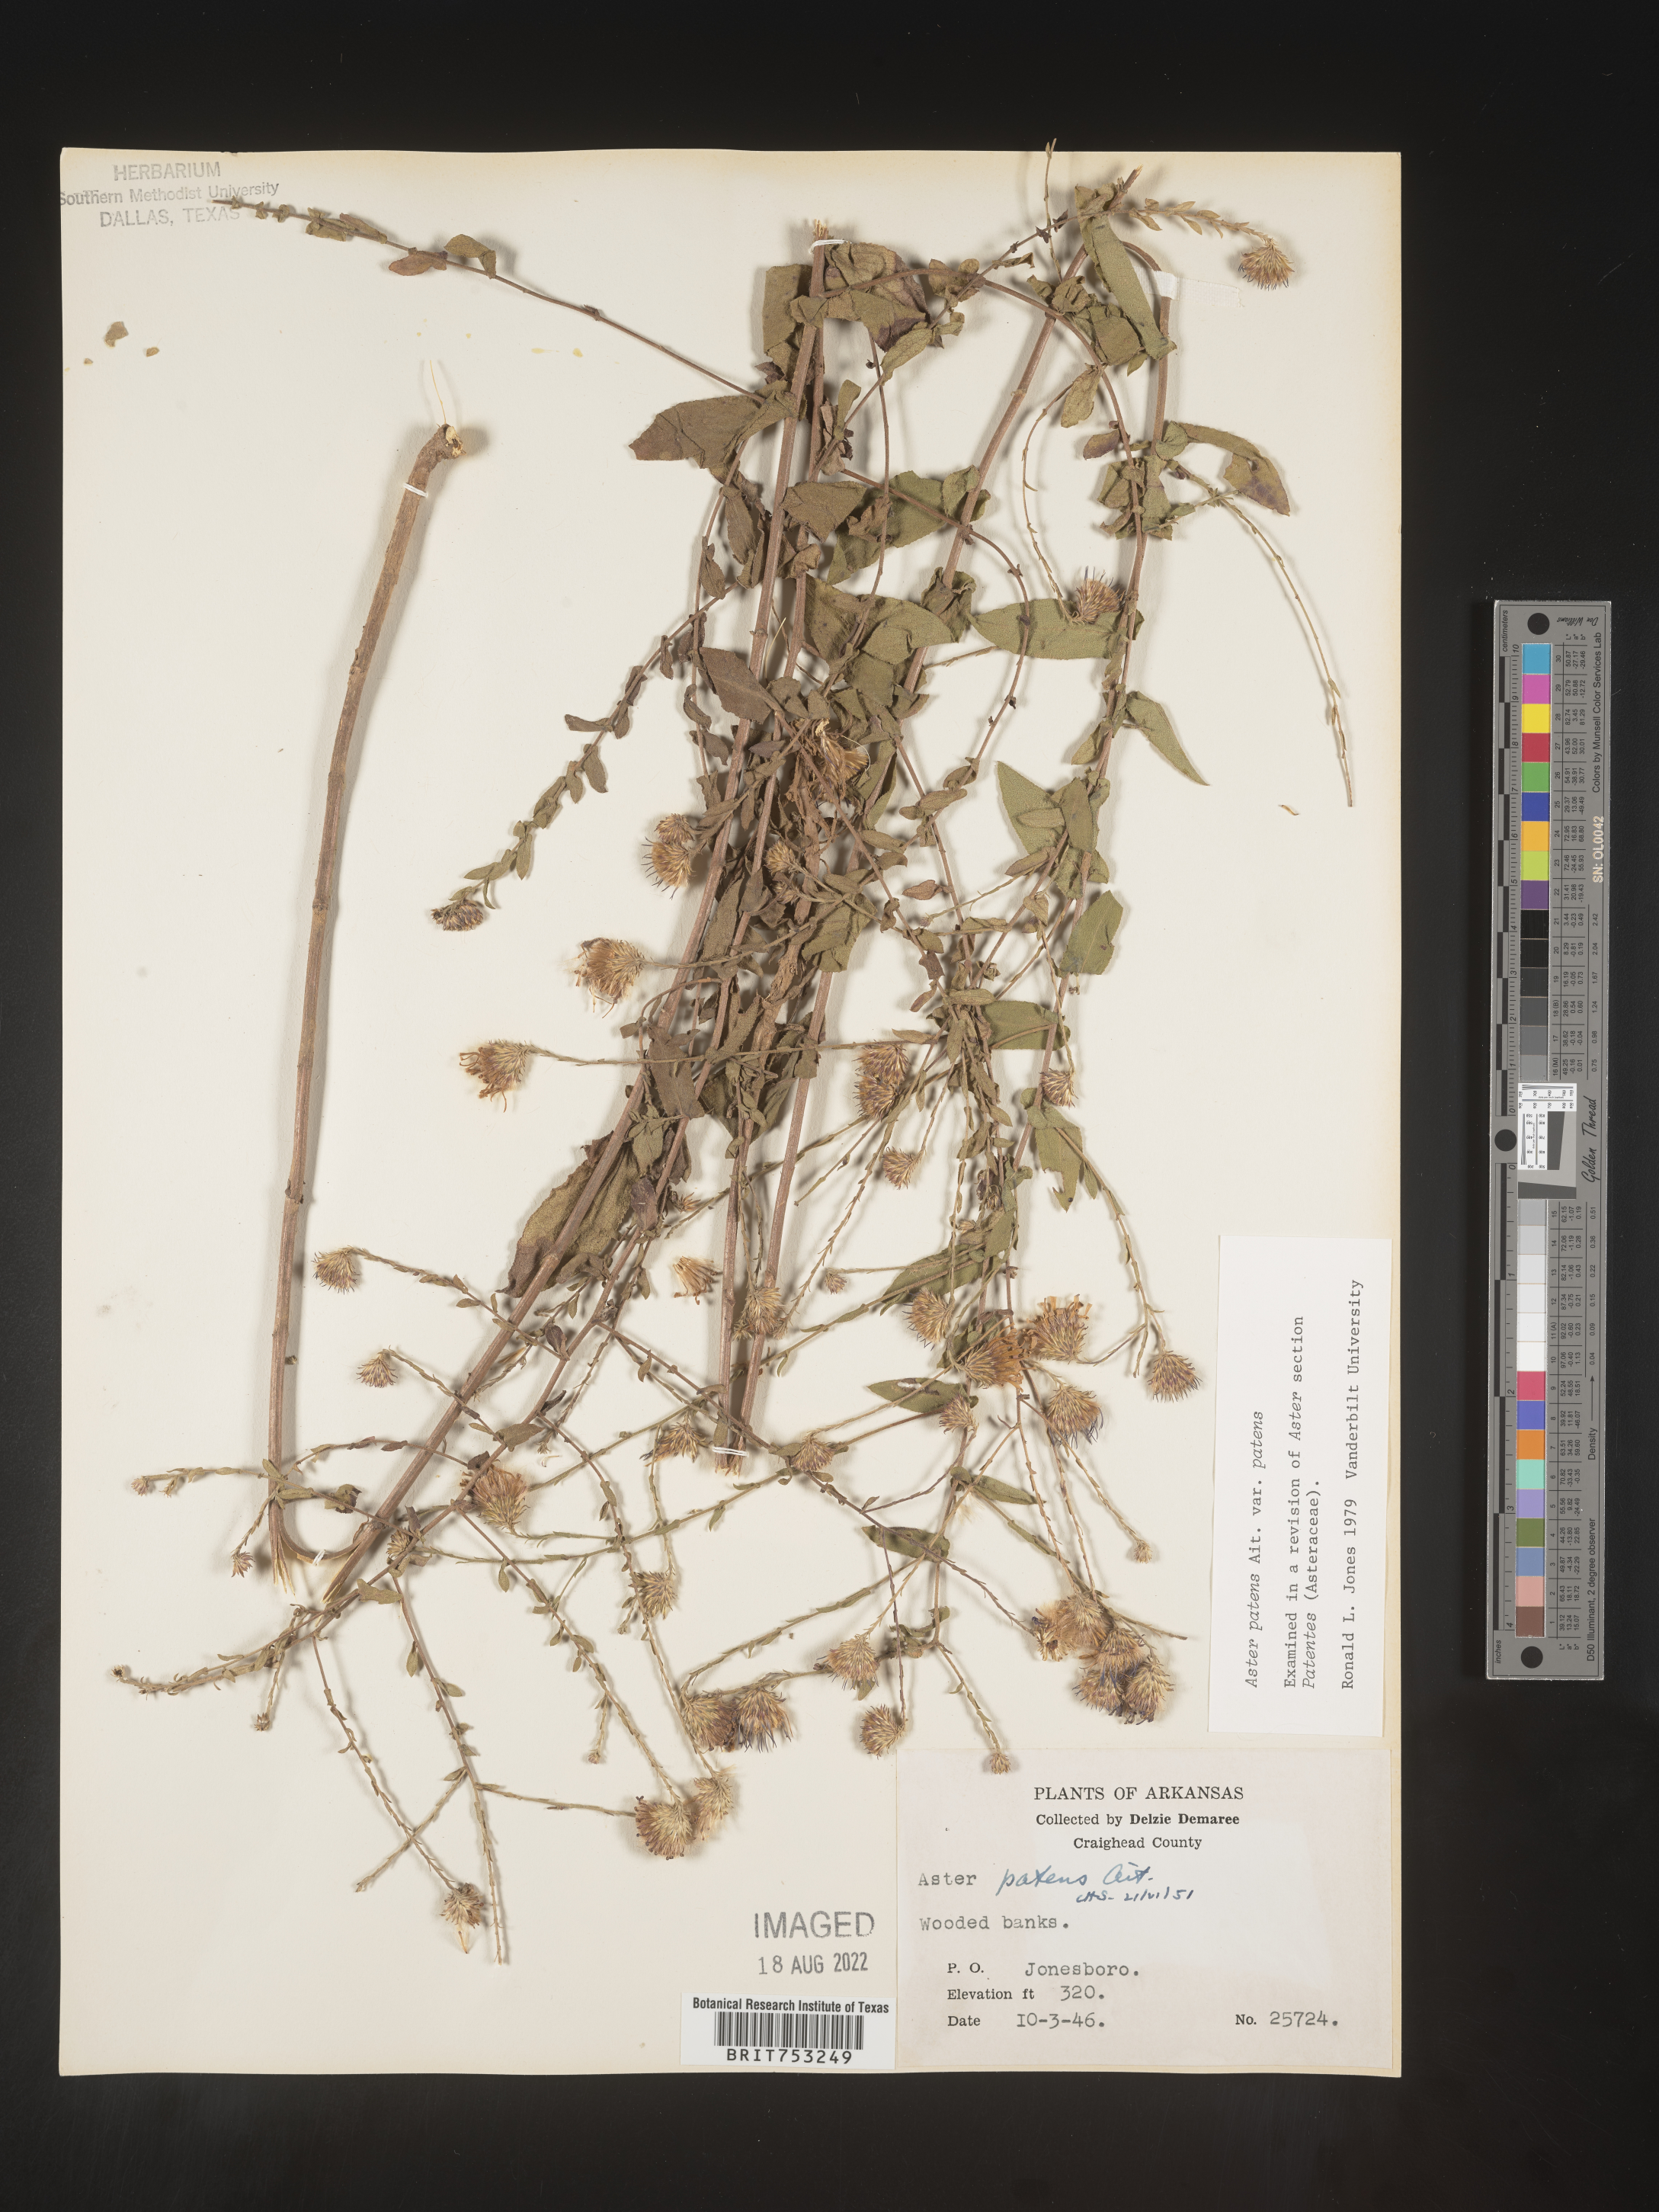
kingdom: Plantae
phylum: Tracheophyta
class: Magnoliopsida
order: Asterales
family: Asteraceae
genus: Symphyotrichum
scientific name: Symphyotrichum patens
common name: Late purple aster
